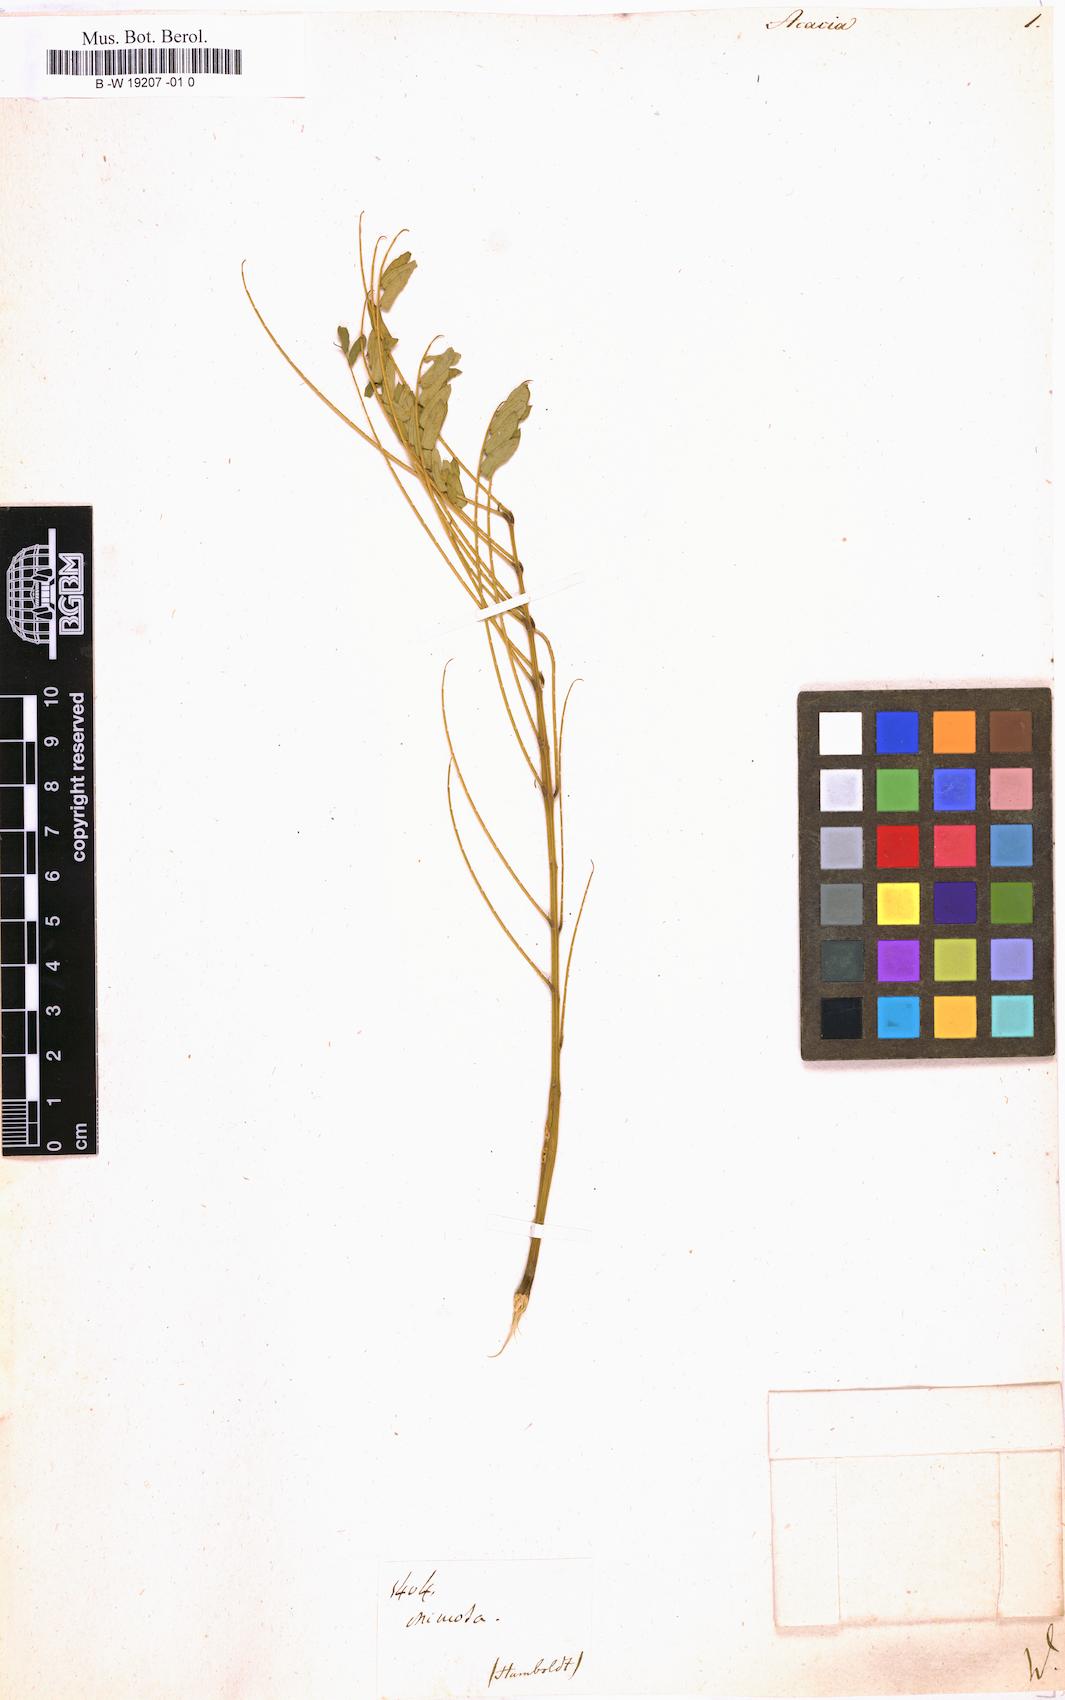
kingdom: Plantae
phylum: Tracheophyta
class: Magnoliopsida
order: Fabales
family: Fabaceae
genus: Acacia
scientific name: Acacia
